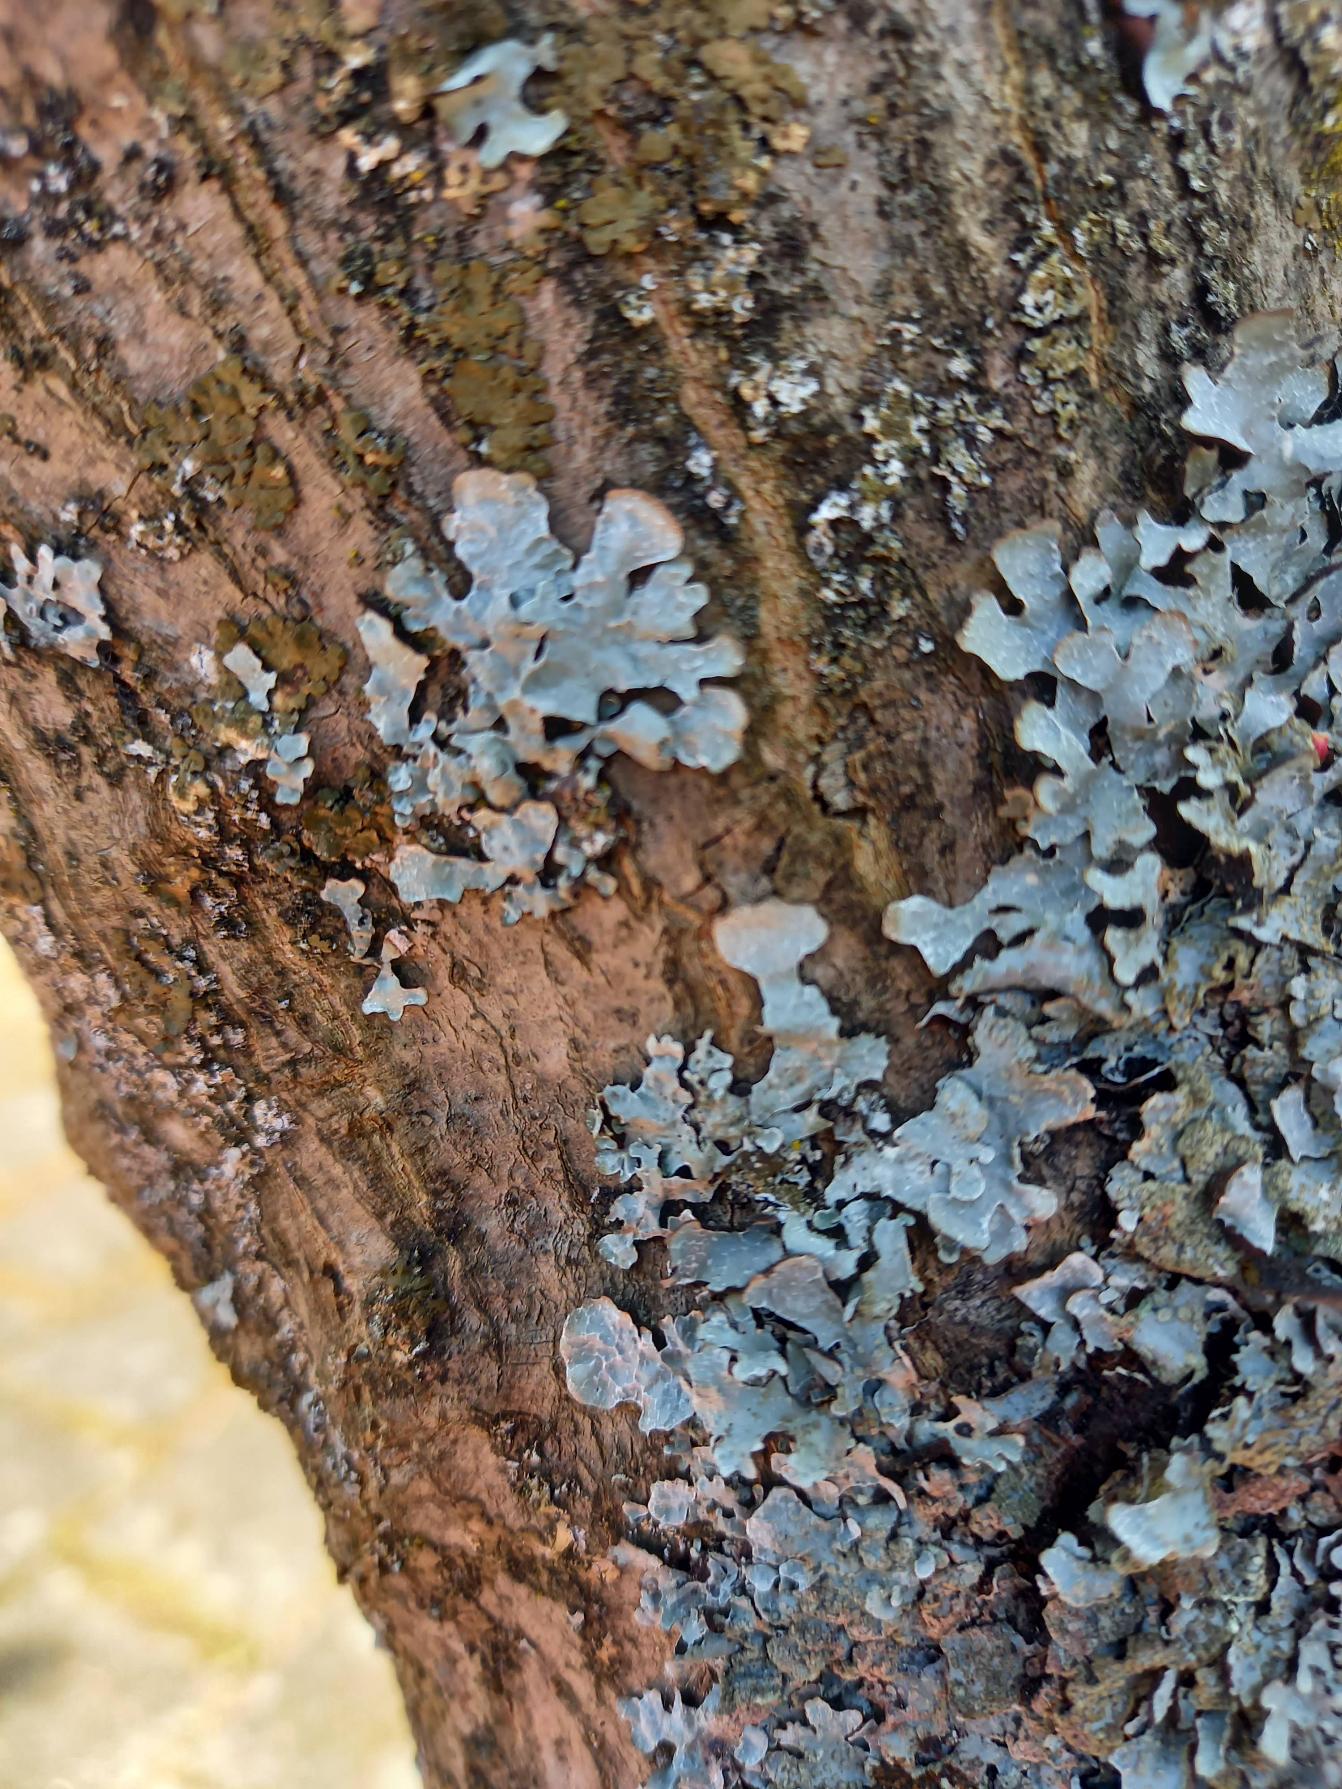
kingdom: Fungi
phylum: Ascomycota
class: Lecanoromycetes
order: Lecanorales
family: Parmeliaceae
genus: Parmelia
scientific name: Parmelia sulcata
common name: Rynket skållav
